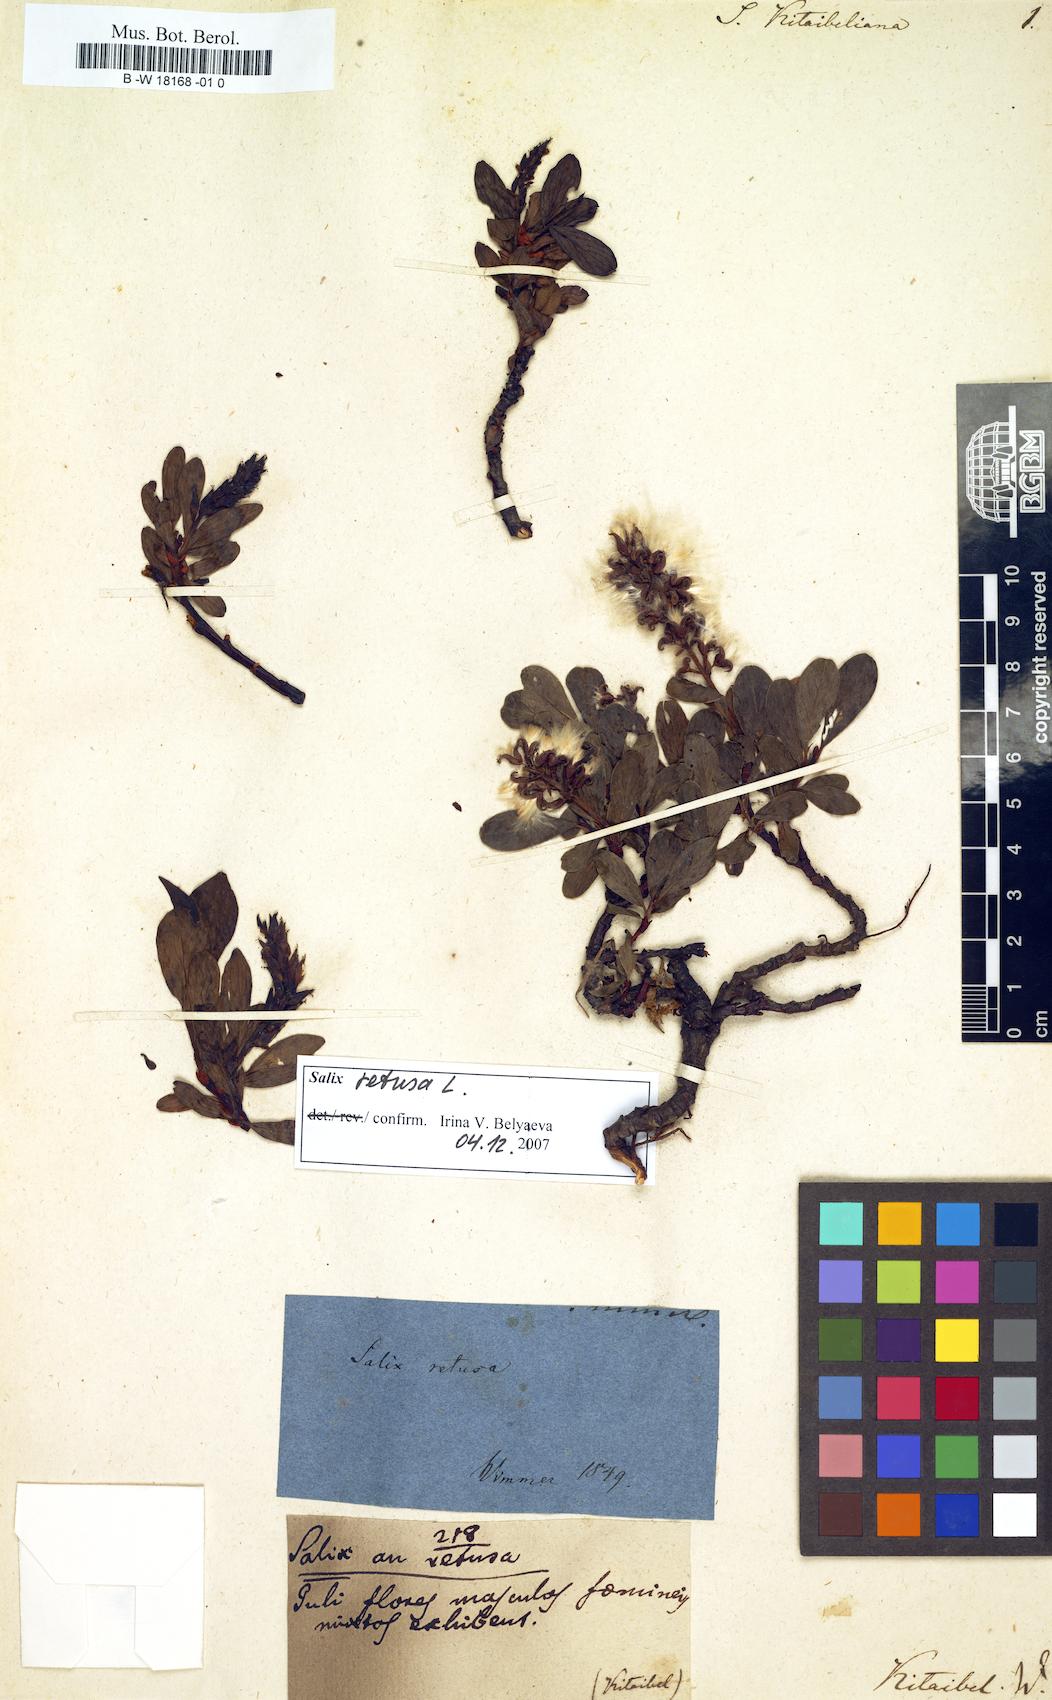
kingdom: Plantae
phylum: Tracheophyta
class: Magnoliopsida
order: Malpighiales
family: Salicaceae
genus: Salix
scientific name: Salix retusa
